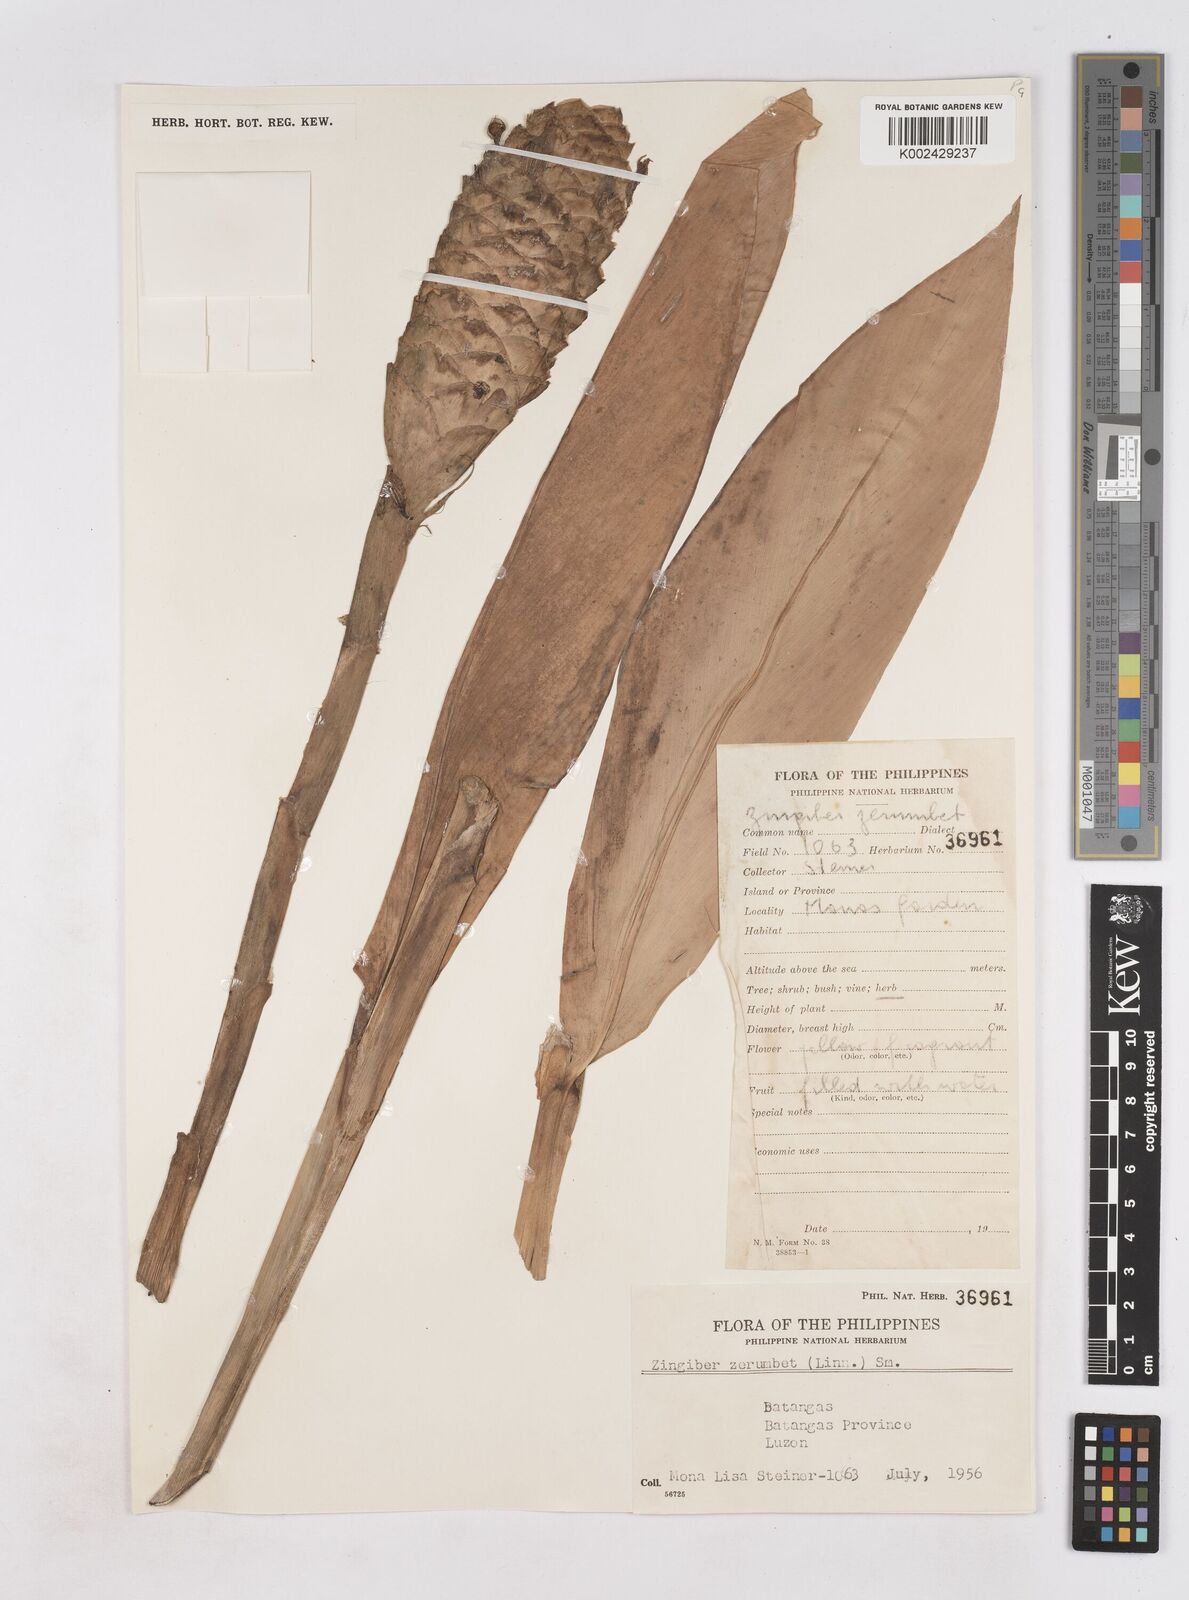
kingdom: Plantae
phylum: Tracheophyta
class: Liliopsida
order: Zingiberales
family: Zingiberaceae
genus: Zingiber
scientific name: Zingiber zerumbet
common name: Bitter ginger
